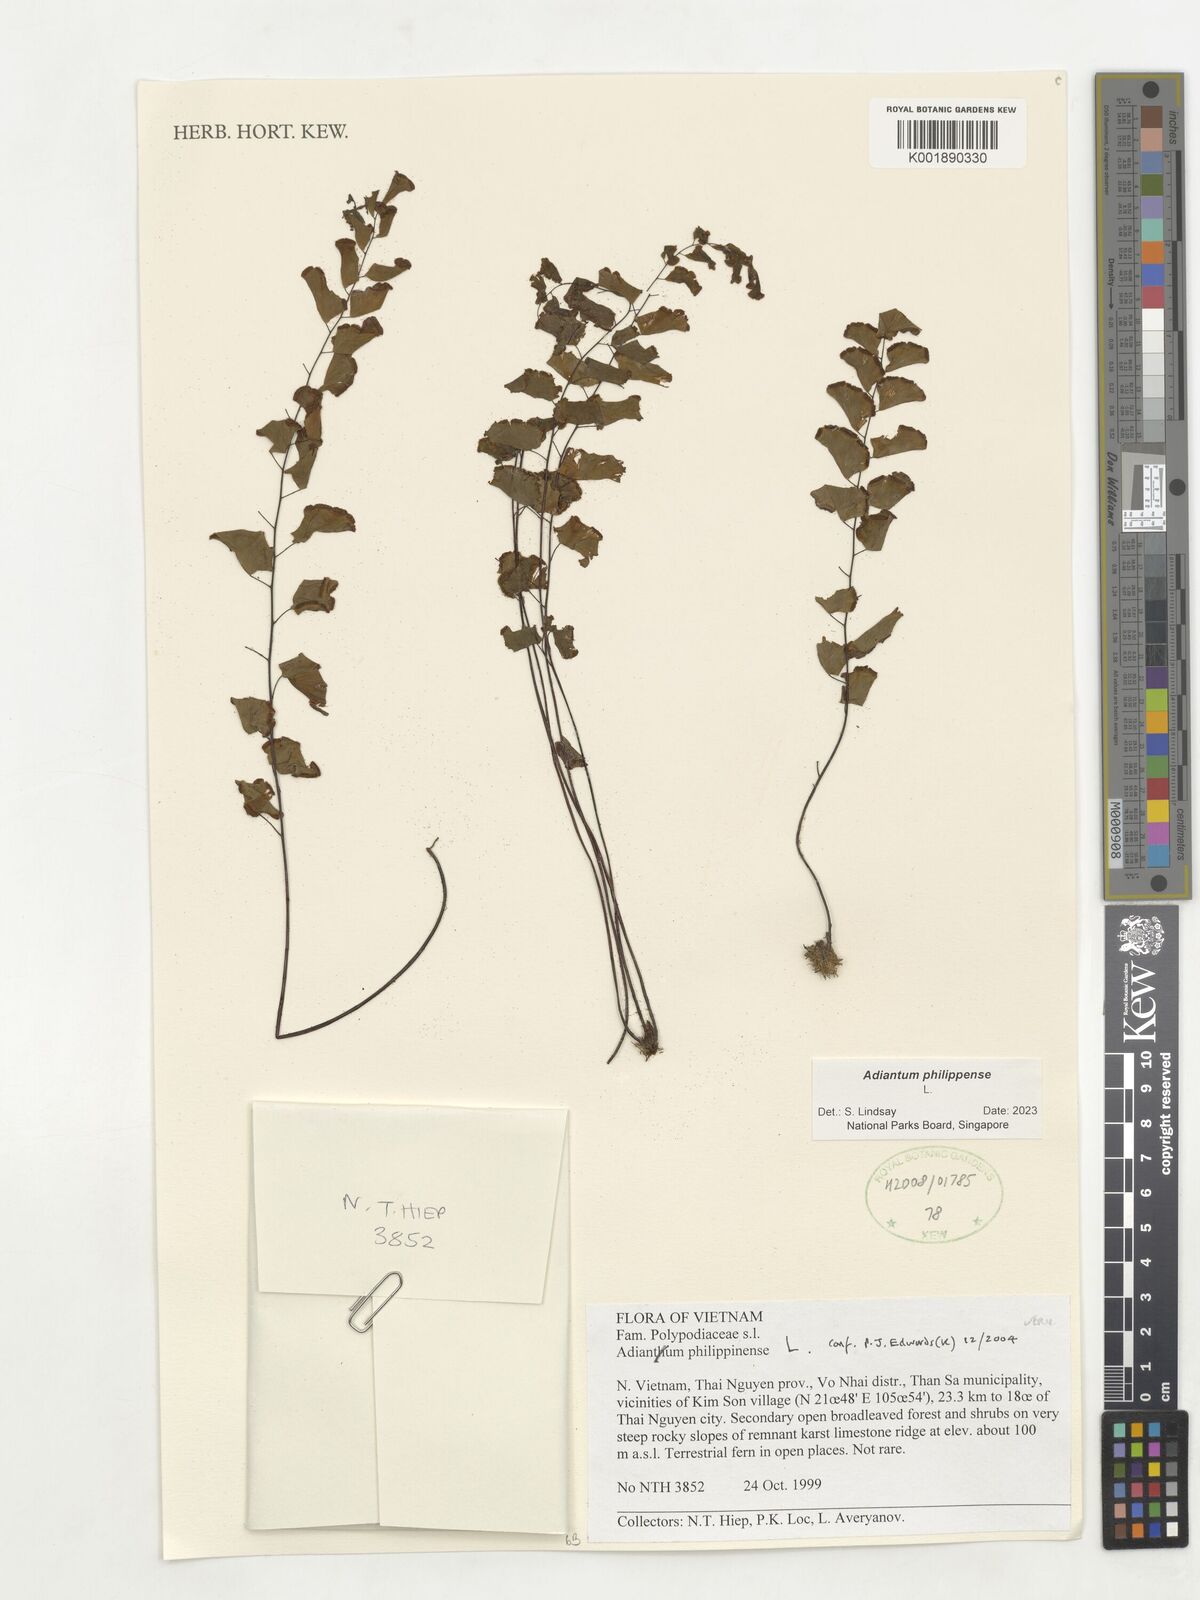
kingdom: Plantae
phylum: Tracheophyta
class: Polypodiopsida
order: Polypodiales
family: Pteridaceae
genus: Adiantum
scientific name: Adiantum philippense
